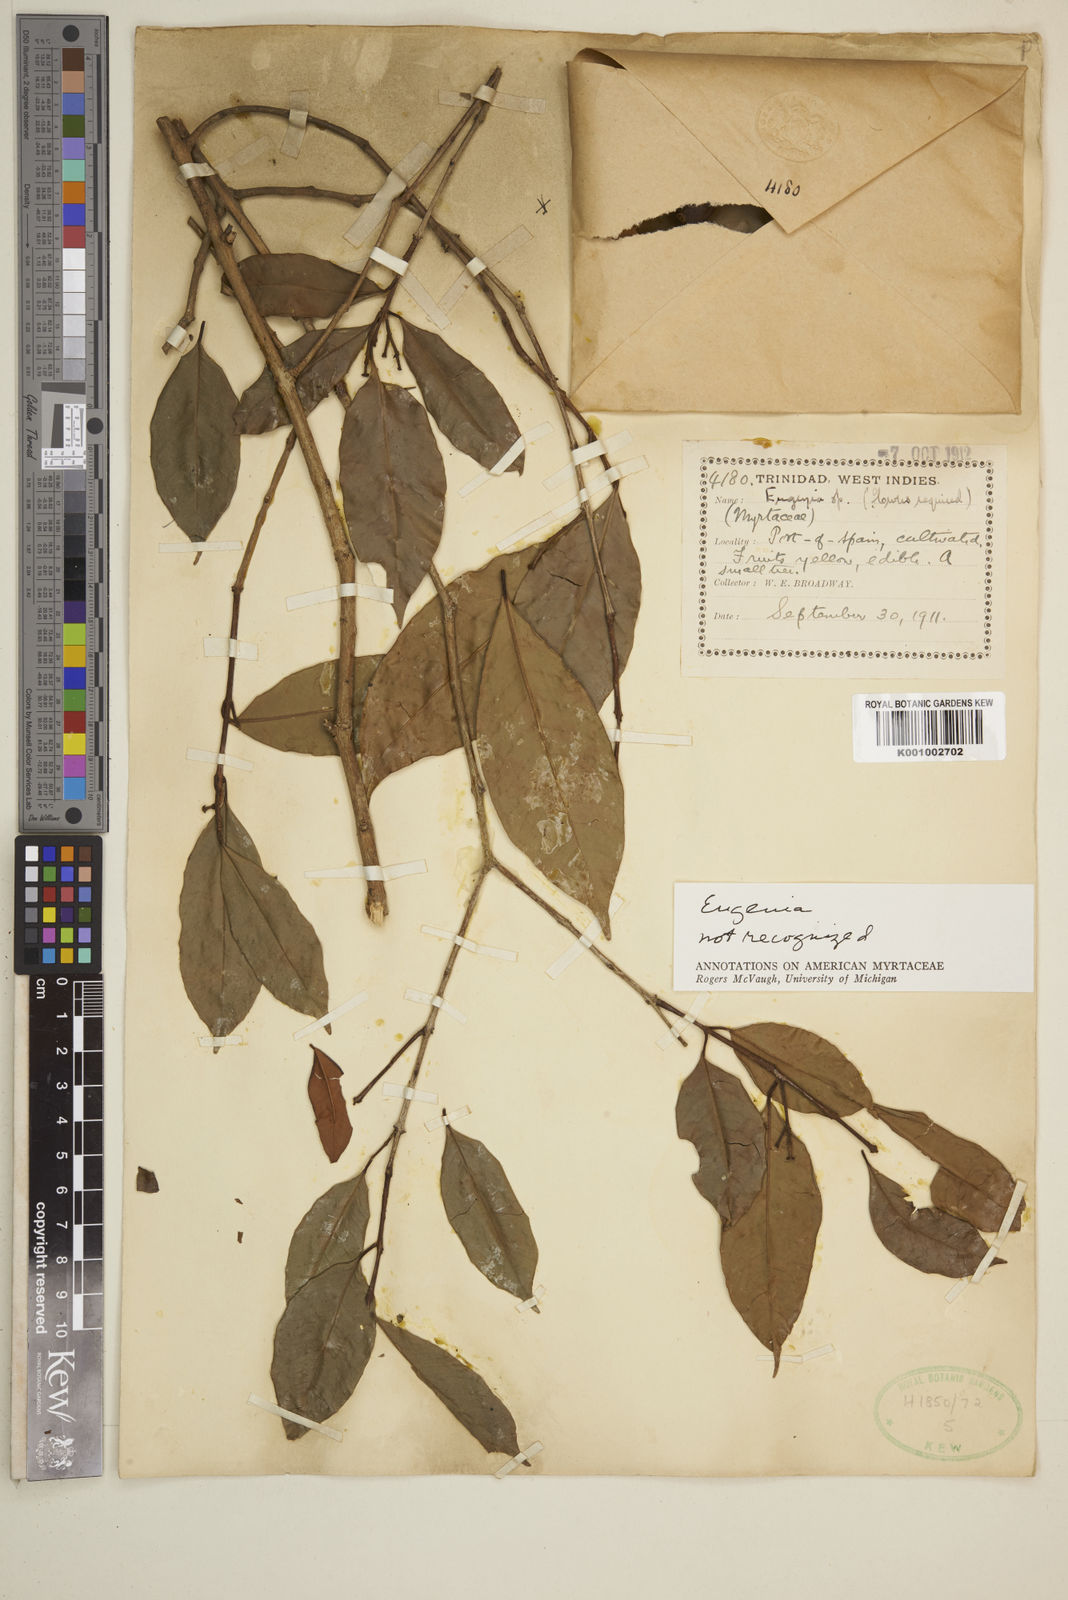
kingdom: Plantae
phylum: Tracheophyta
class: Magnoliopsida
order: Myrtales
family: Myrtaceae
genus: Eugenia
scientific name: Eugenia
